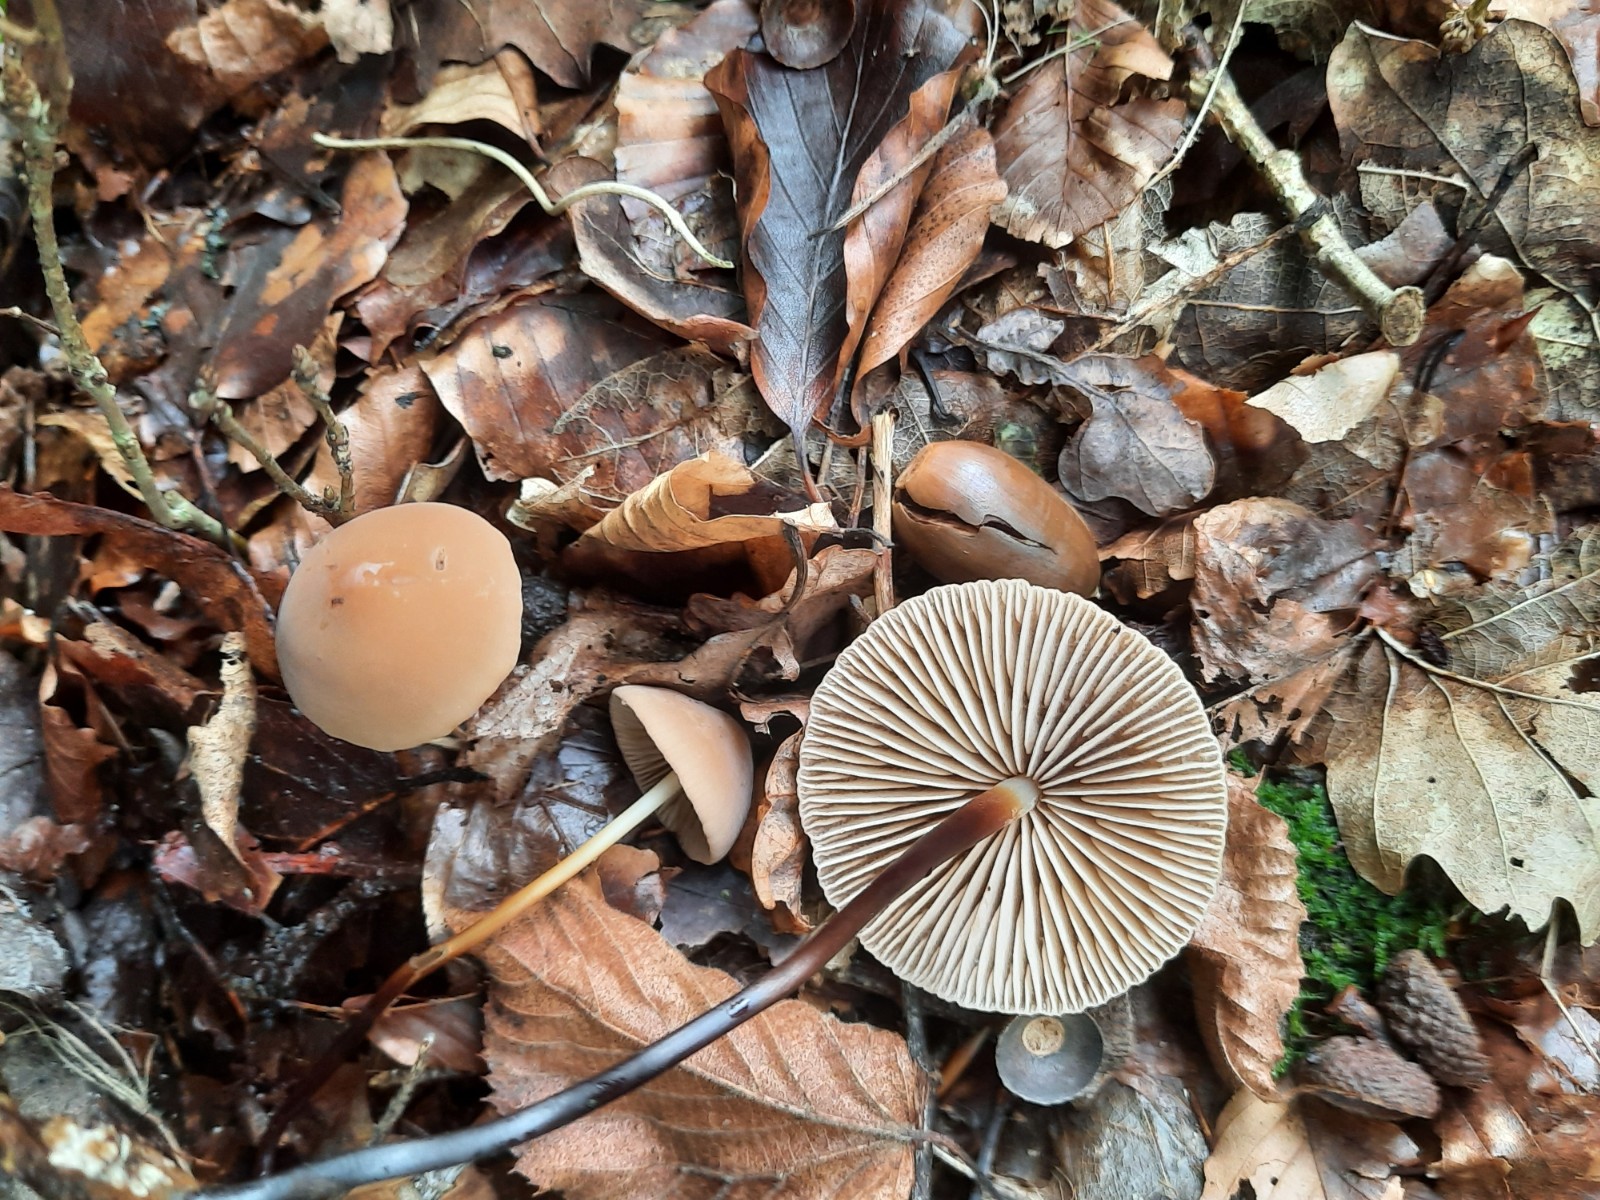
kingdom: Fungi
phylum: Basidiomycota
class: Agaricomycetes
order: Agaricales
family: Marasmiaceae
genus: Marasmius
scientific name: Marasmius cohaerens
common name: hornstokket bruskhat
